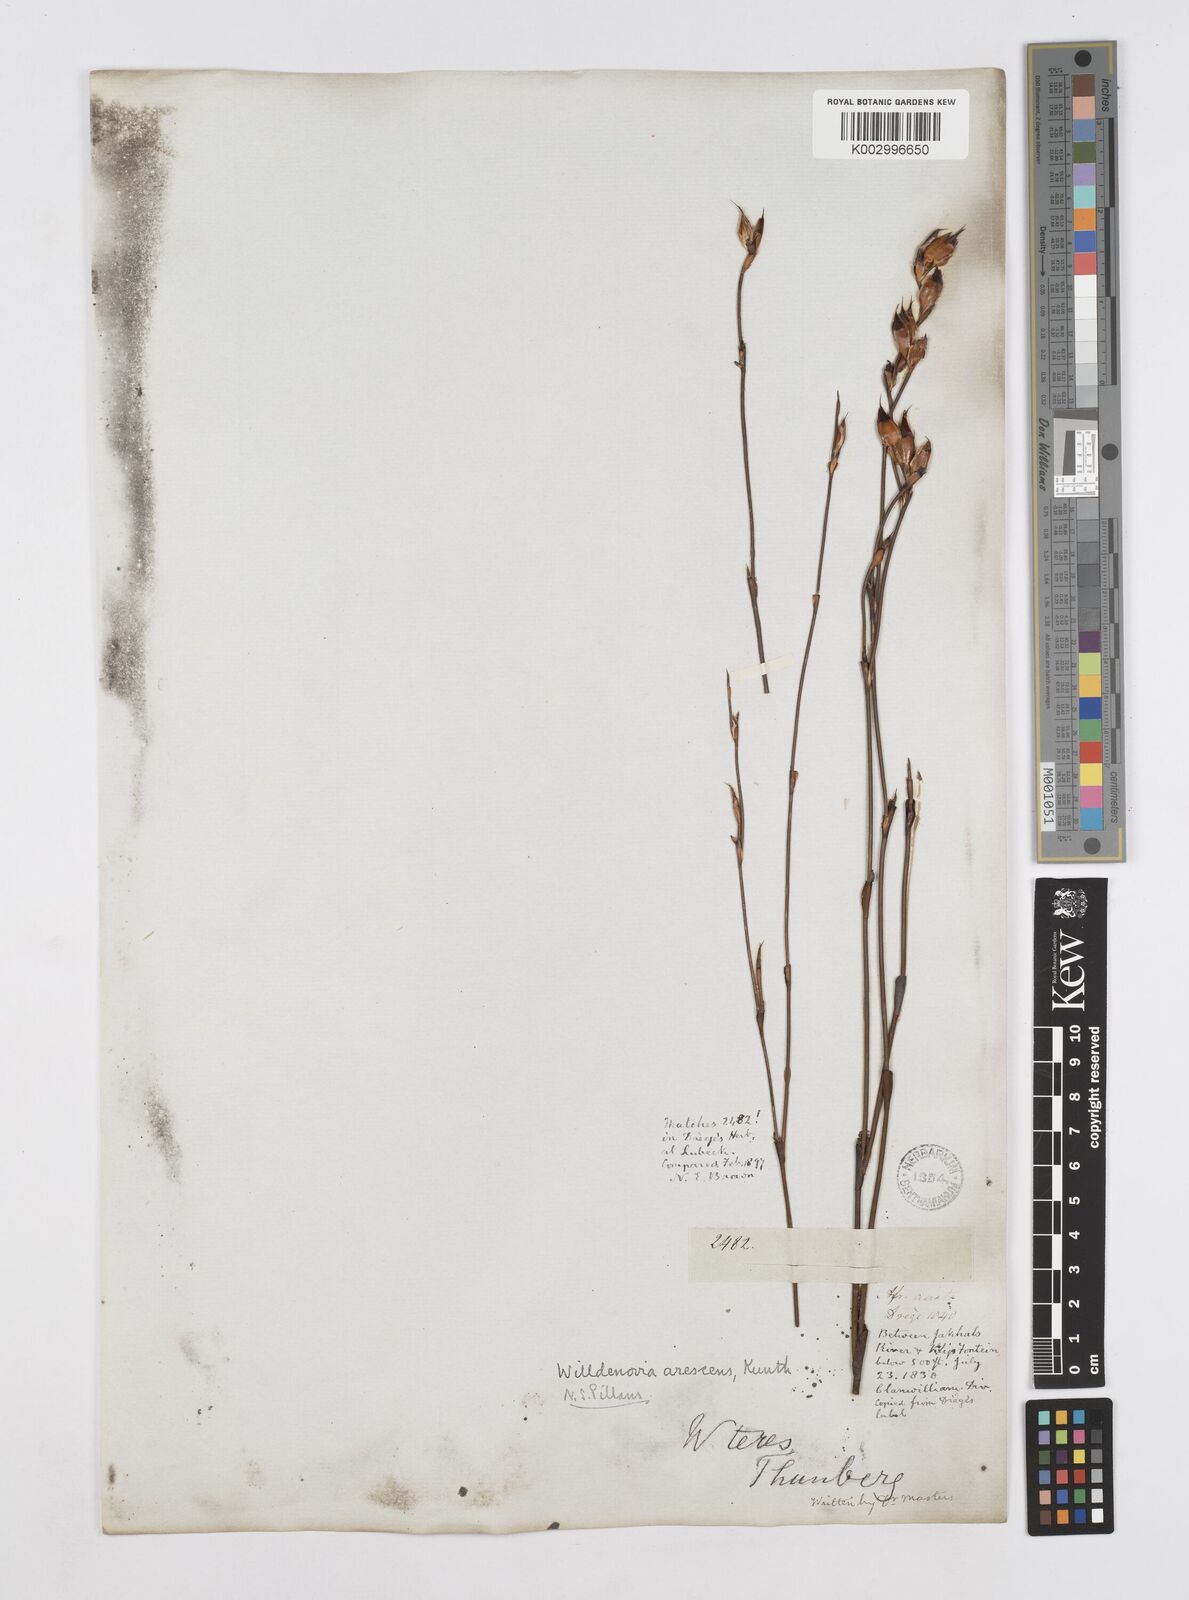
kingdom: Plantae
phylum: Tracheophyta
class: Liliopsida
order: Poales
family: Restionaceae
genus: Willdenowia
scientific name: Willdenowia arescens
